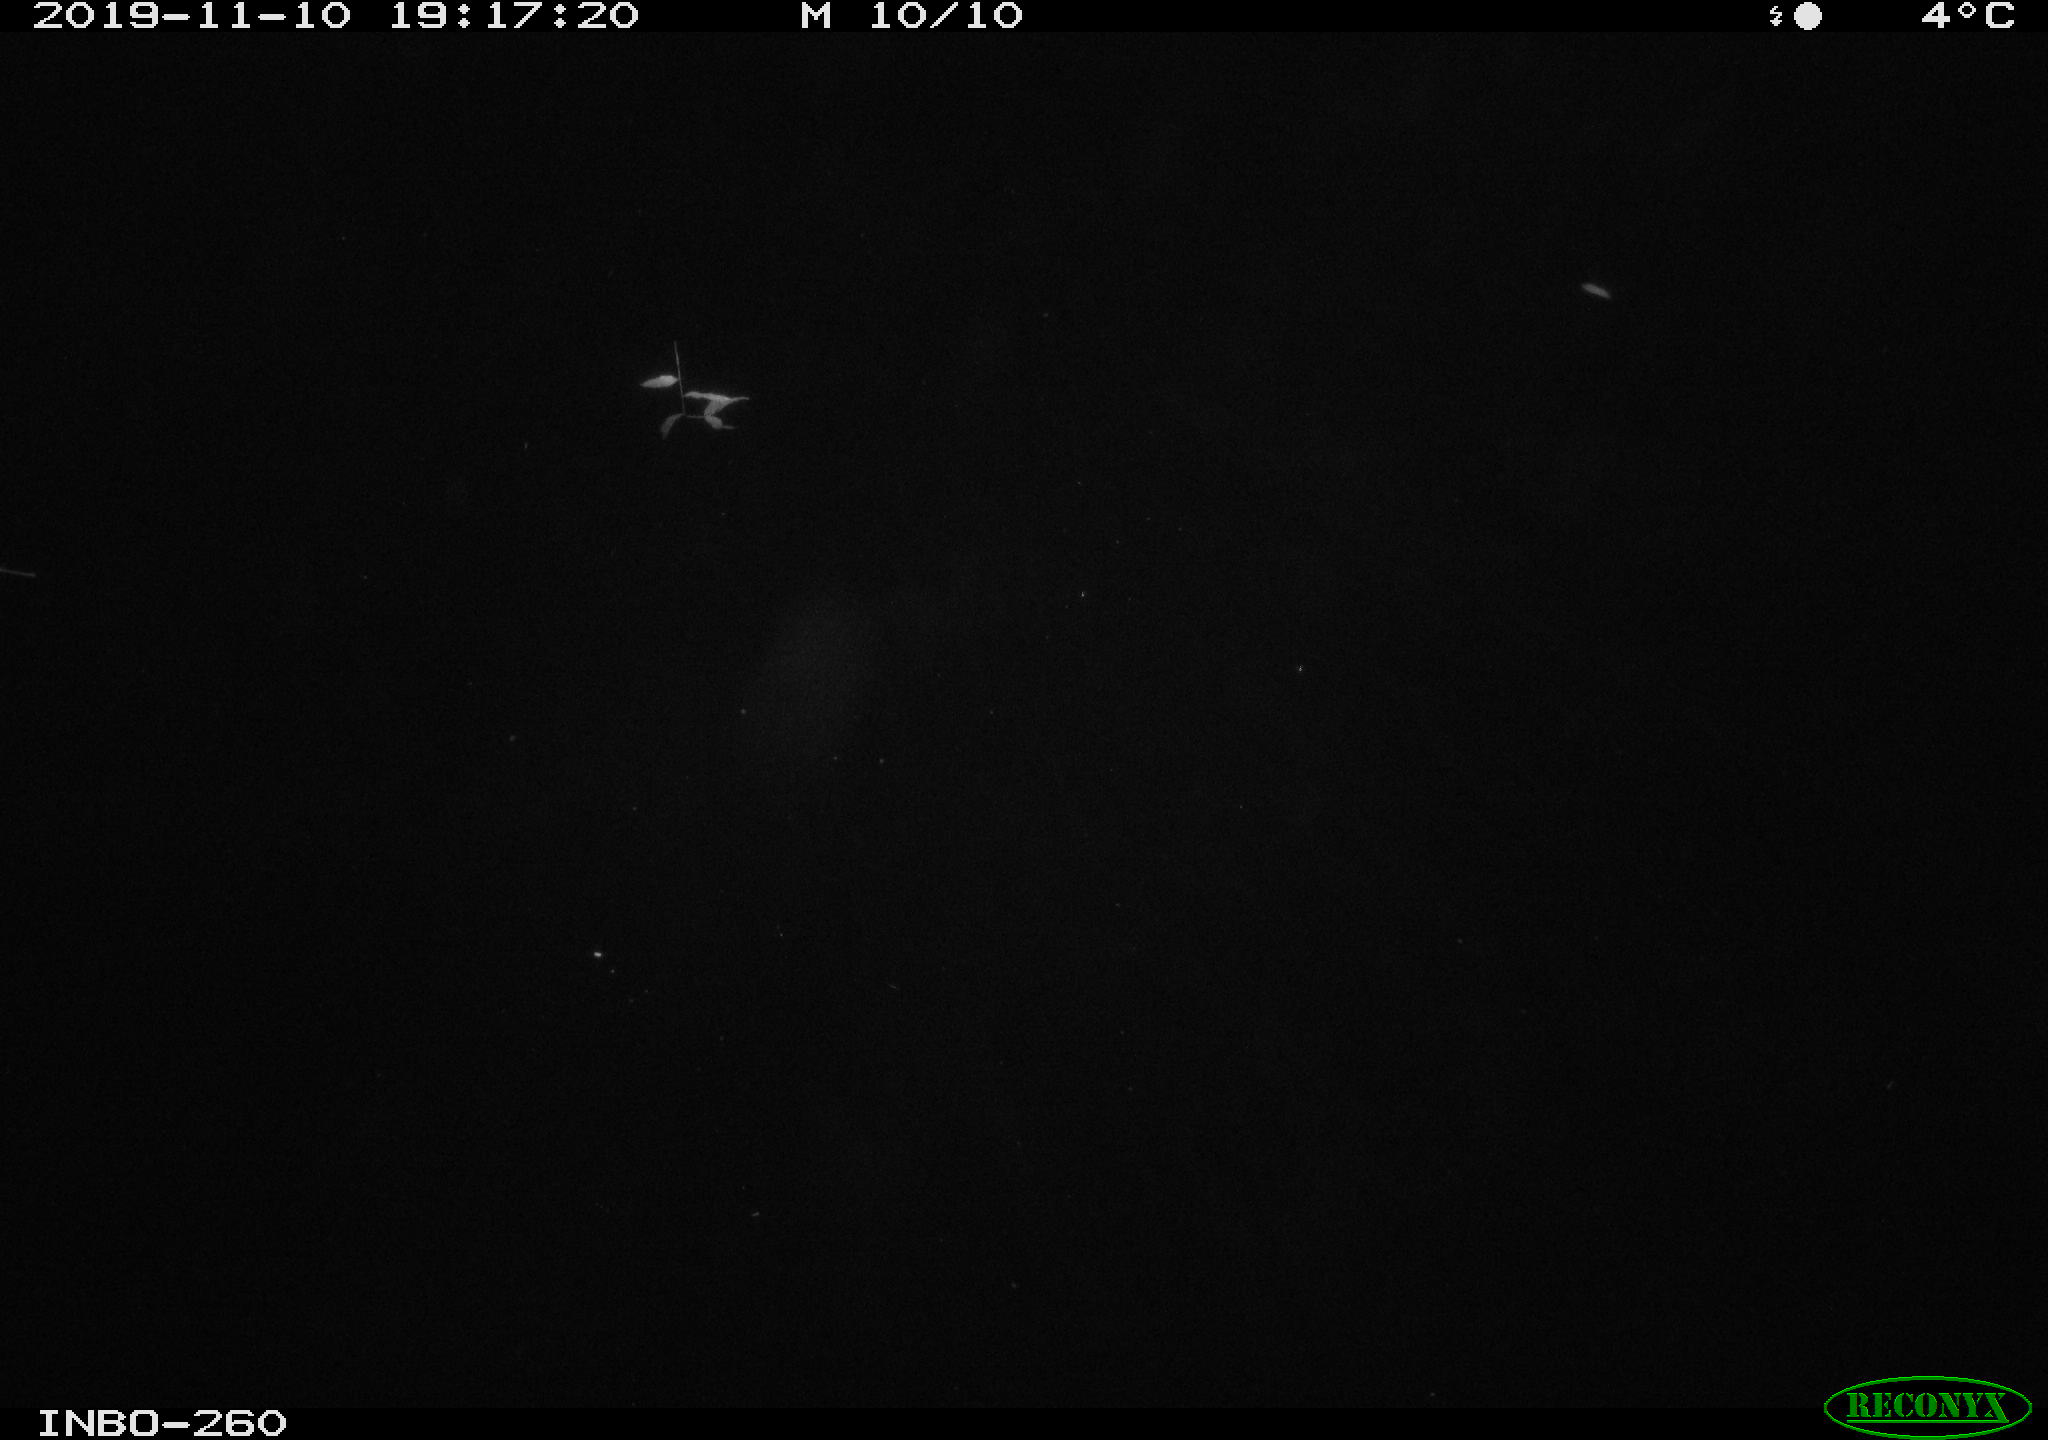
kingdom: Animalia
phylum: Chordata
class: Aves
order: Anseriformes
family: Anatidae
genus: Anas
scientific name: Anas platyrhynchos
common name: Mallard
